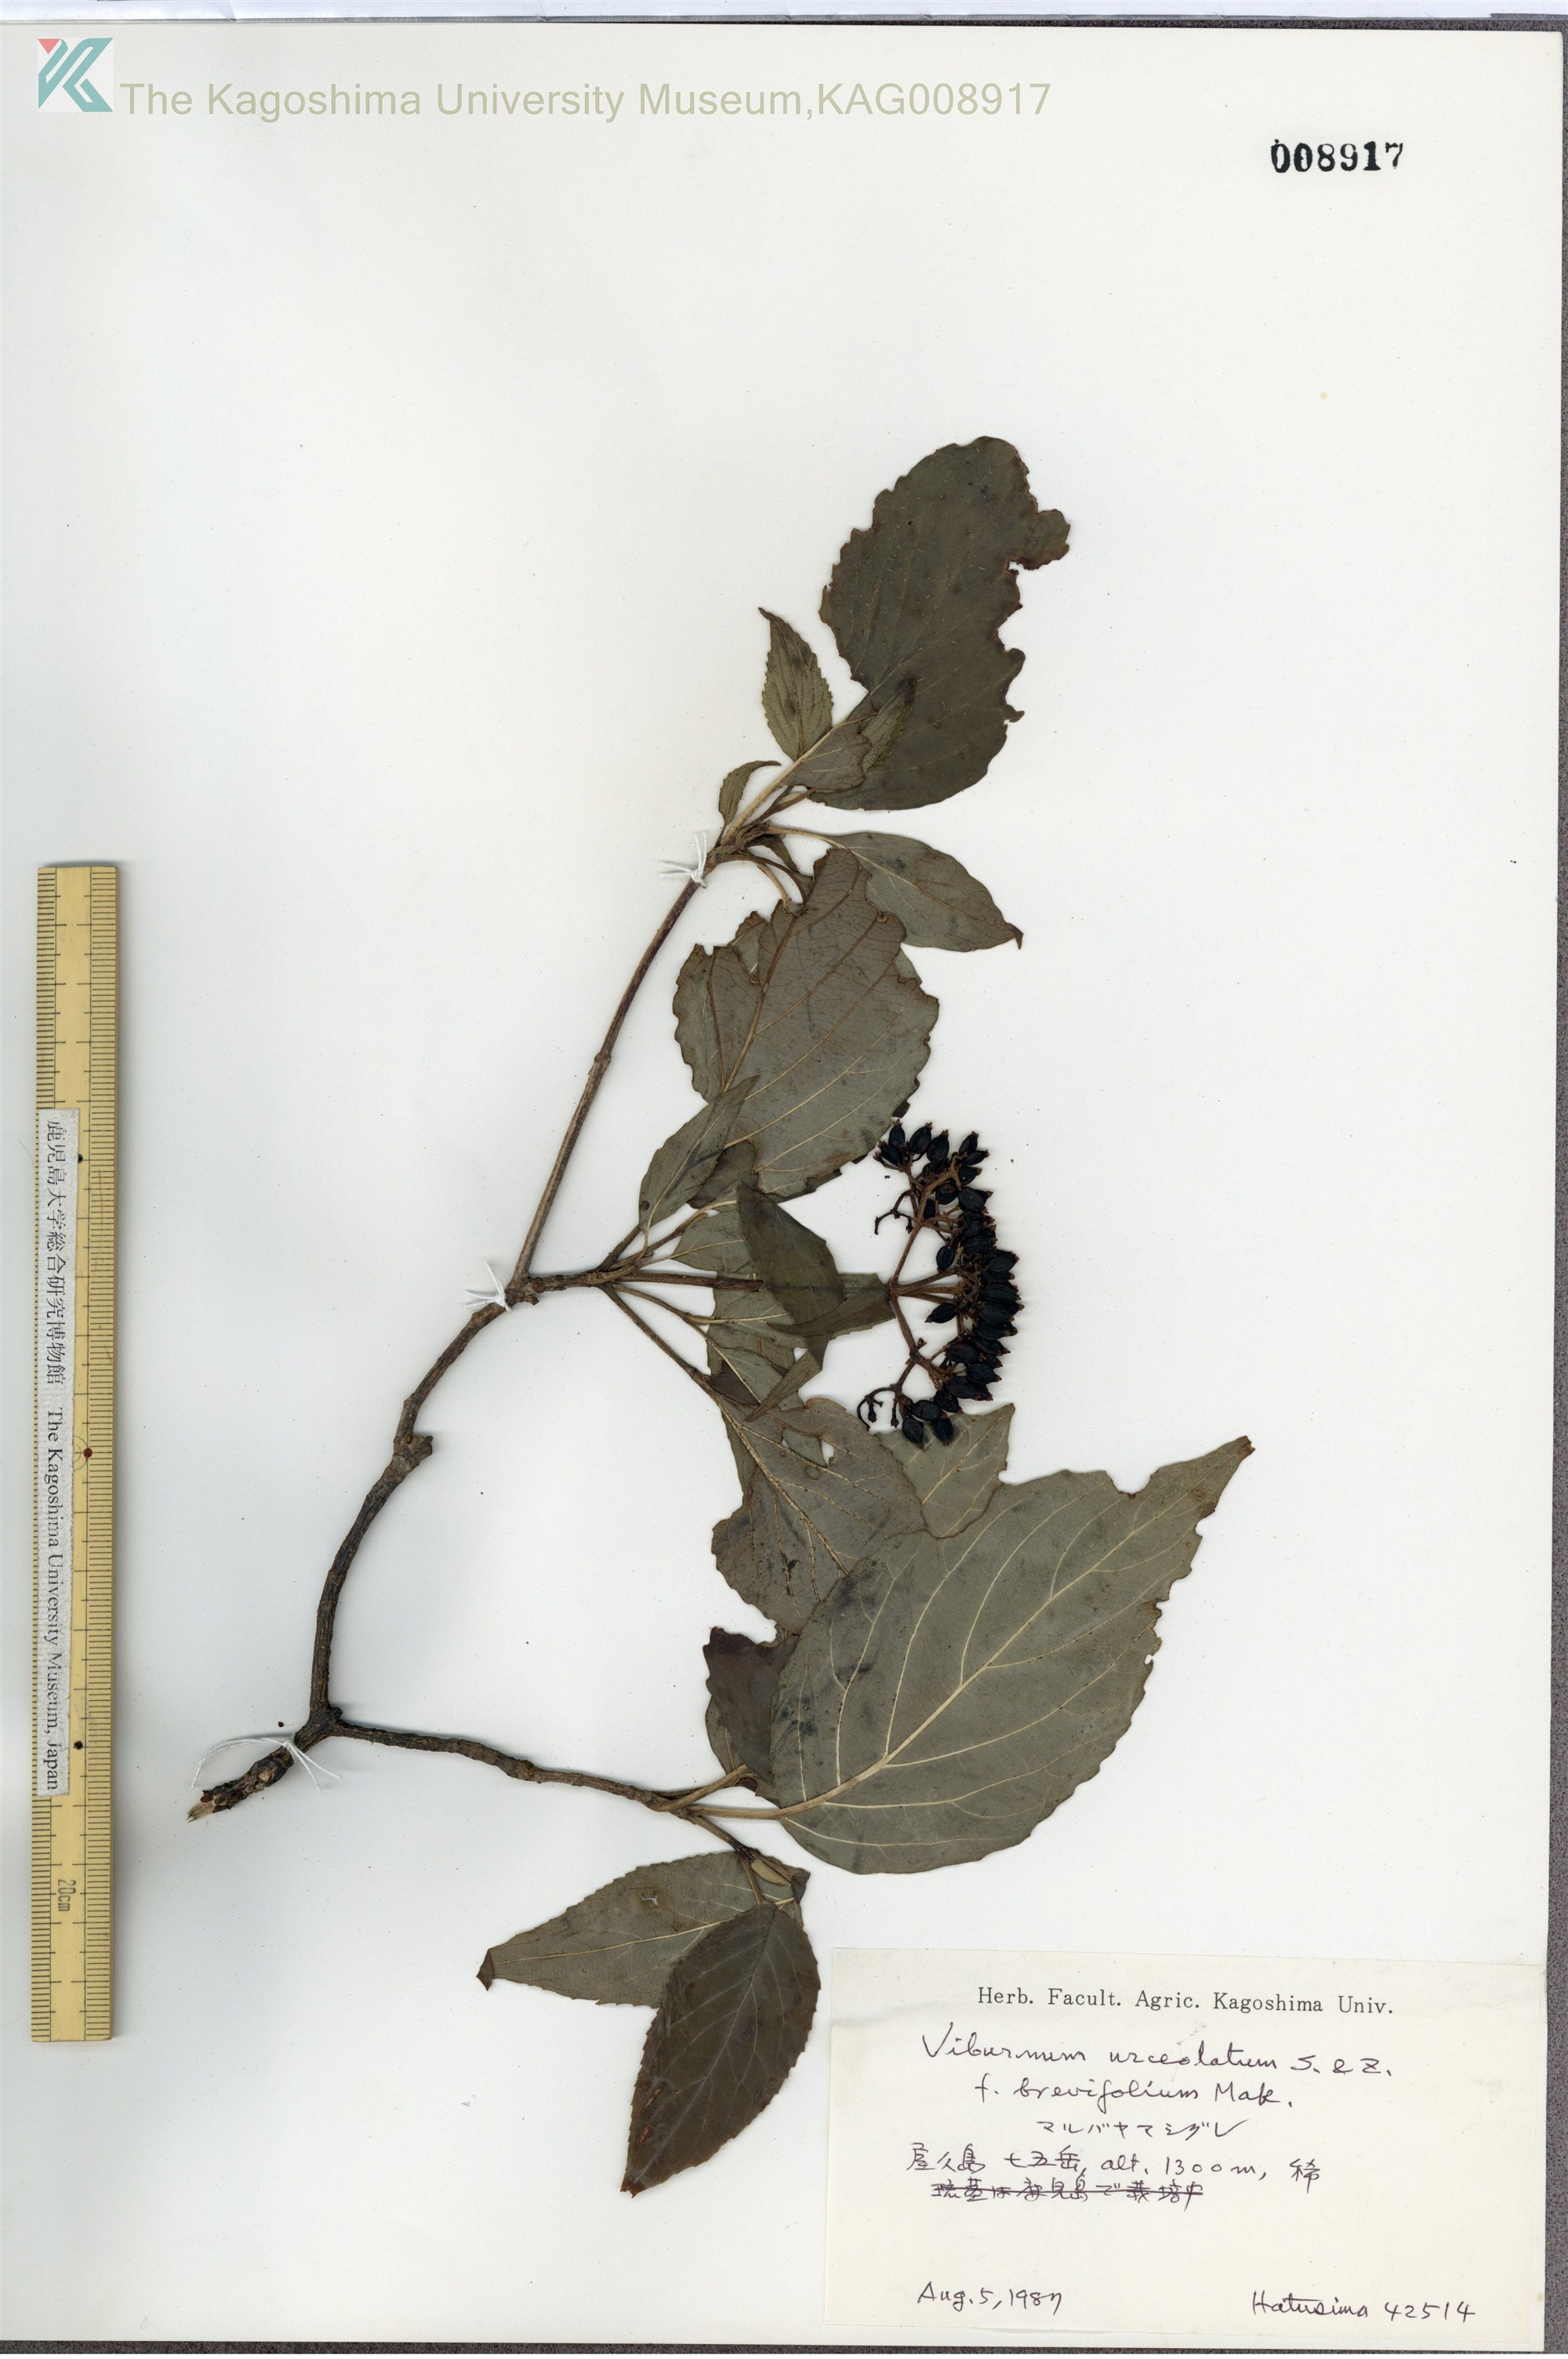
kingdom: Plantae
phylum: Tracheophyta
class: Magnoliopsida
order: Dipsacales
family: Viburnaceae
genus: Viburnum
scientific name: Viburnum urceolatum
